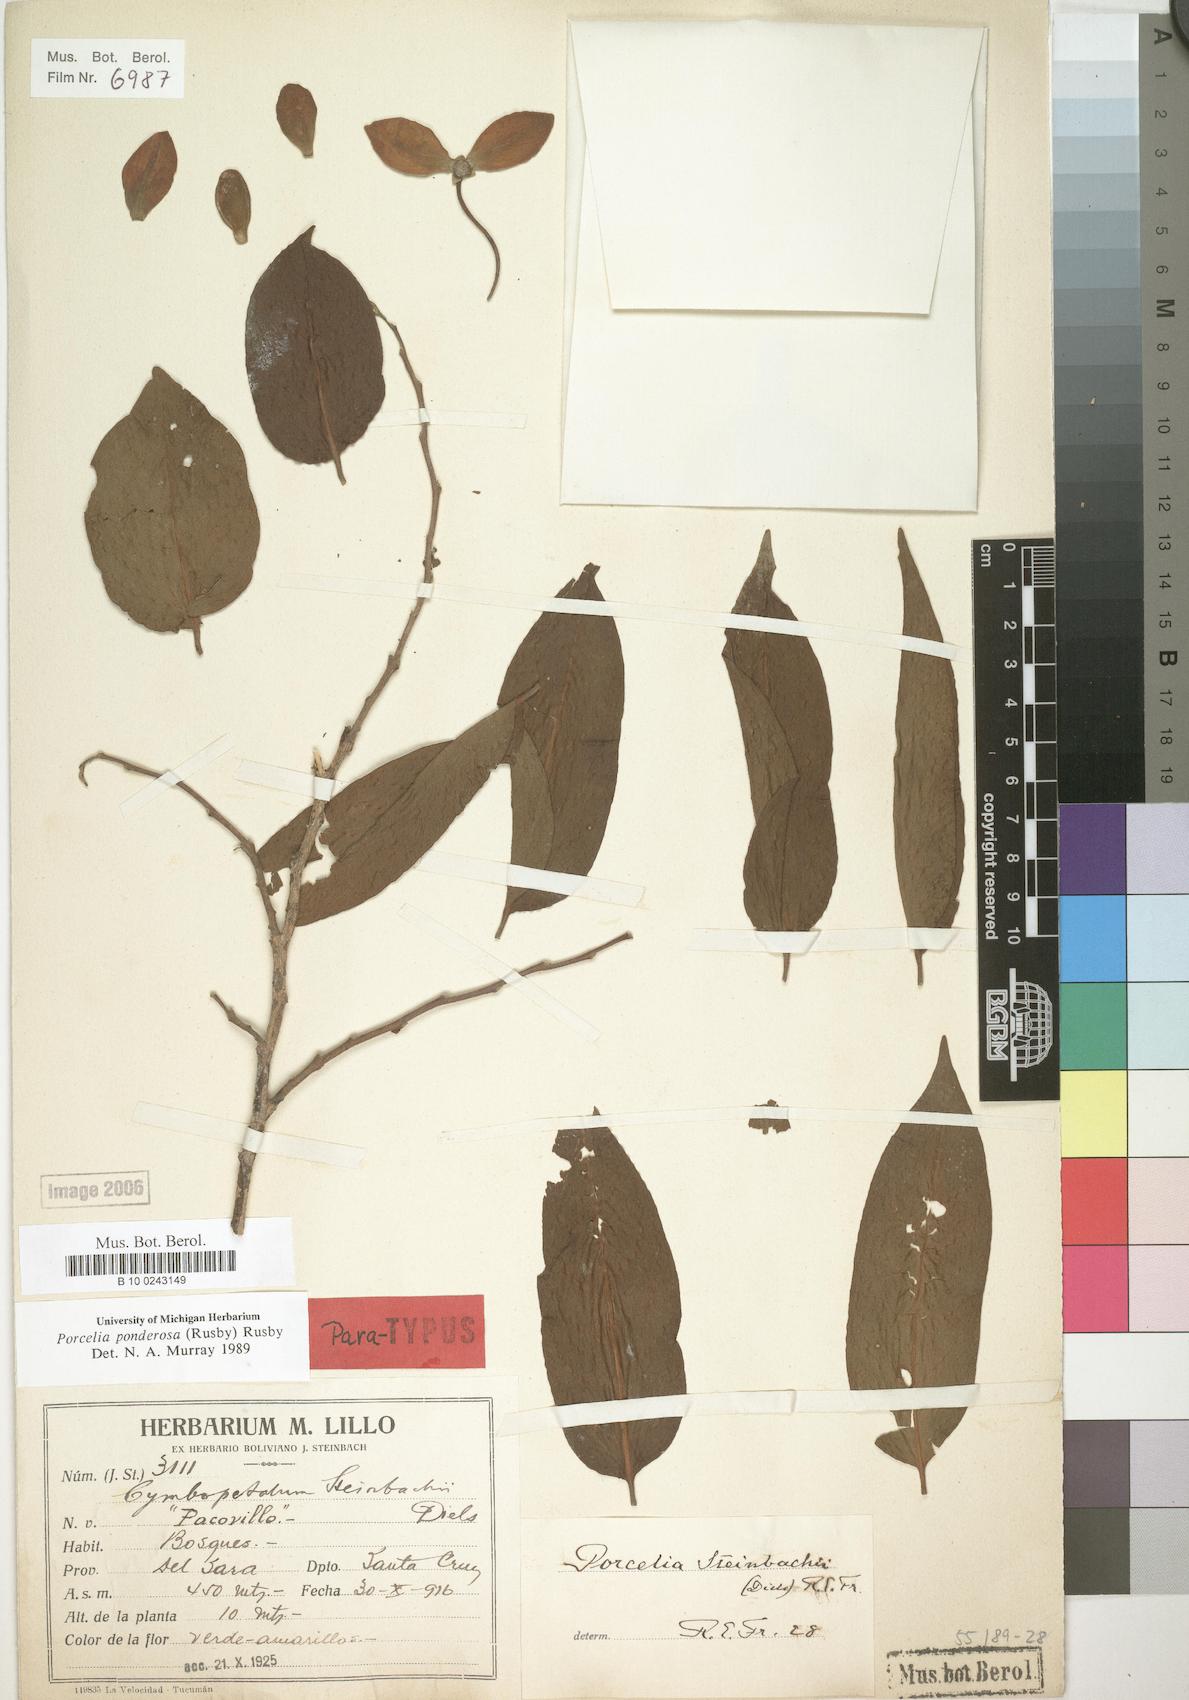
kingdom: Plantae
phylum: Tracheophyta
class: Magnoliopsida
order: Magnoliales
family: Annonaceae
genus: Porcelia
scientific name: Porcelia ponderosa
